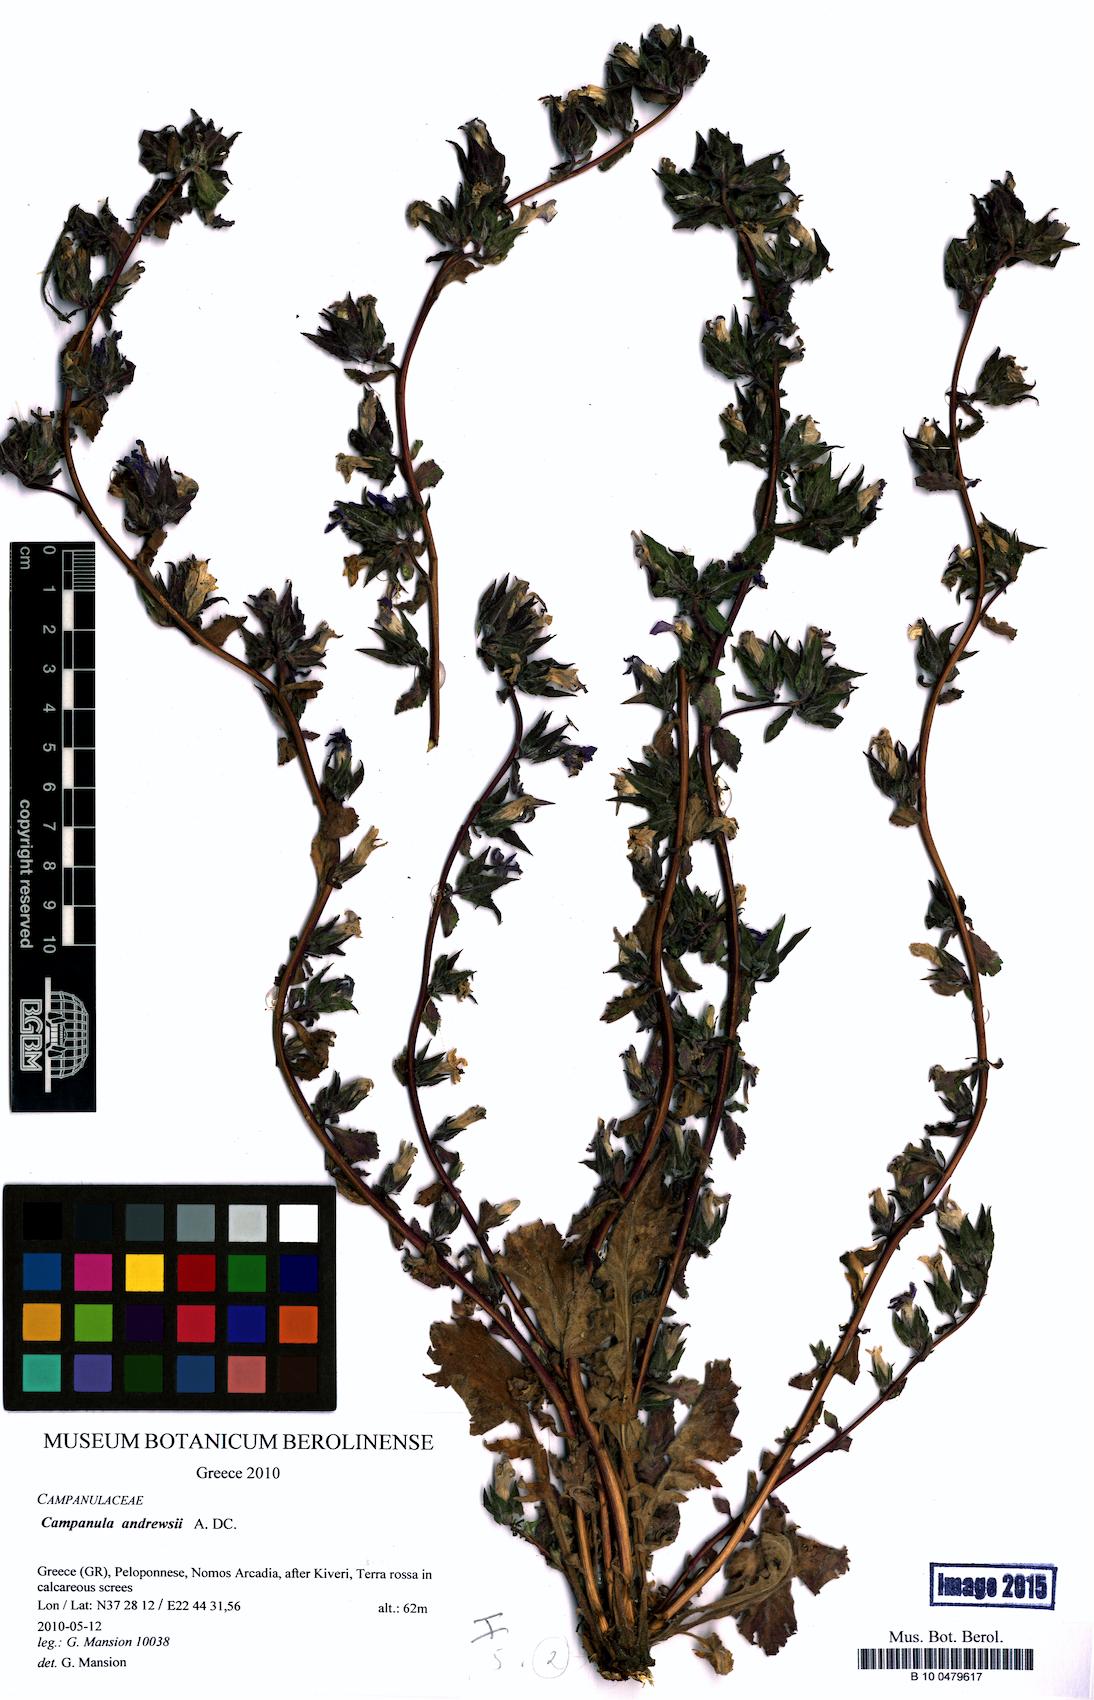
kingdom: Plantae
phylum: Tracheophyta
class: Magnoliopsida
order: Asterales
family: Campanulaceae
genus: Campanula
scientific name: Campanula andrewsii
